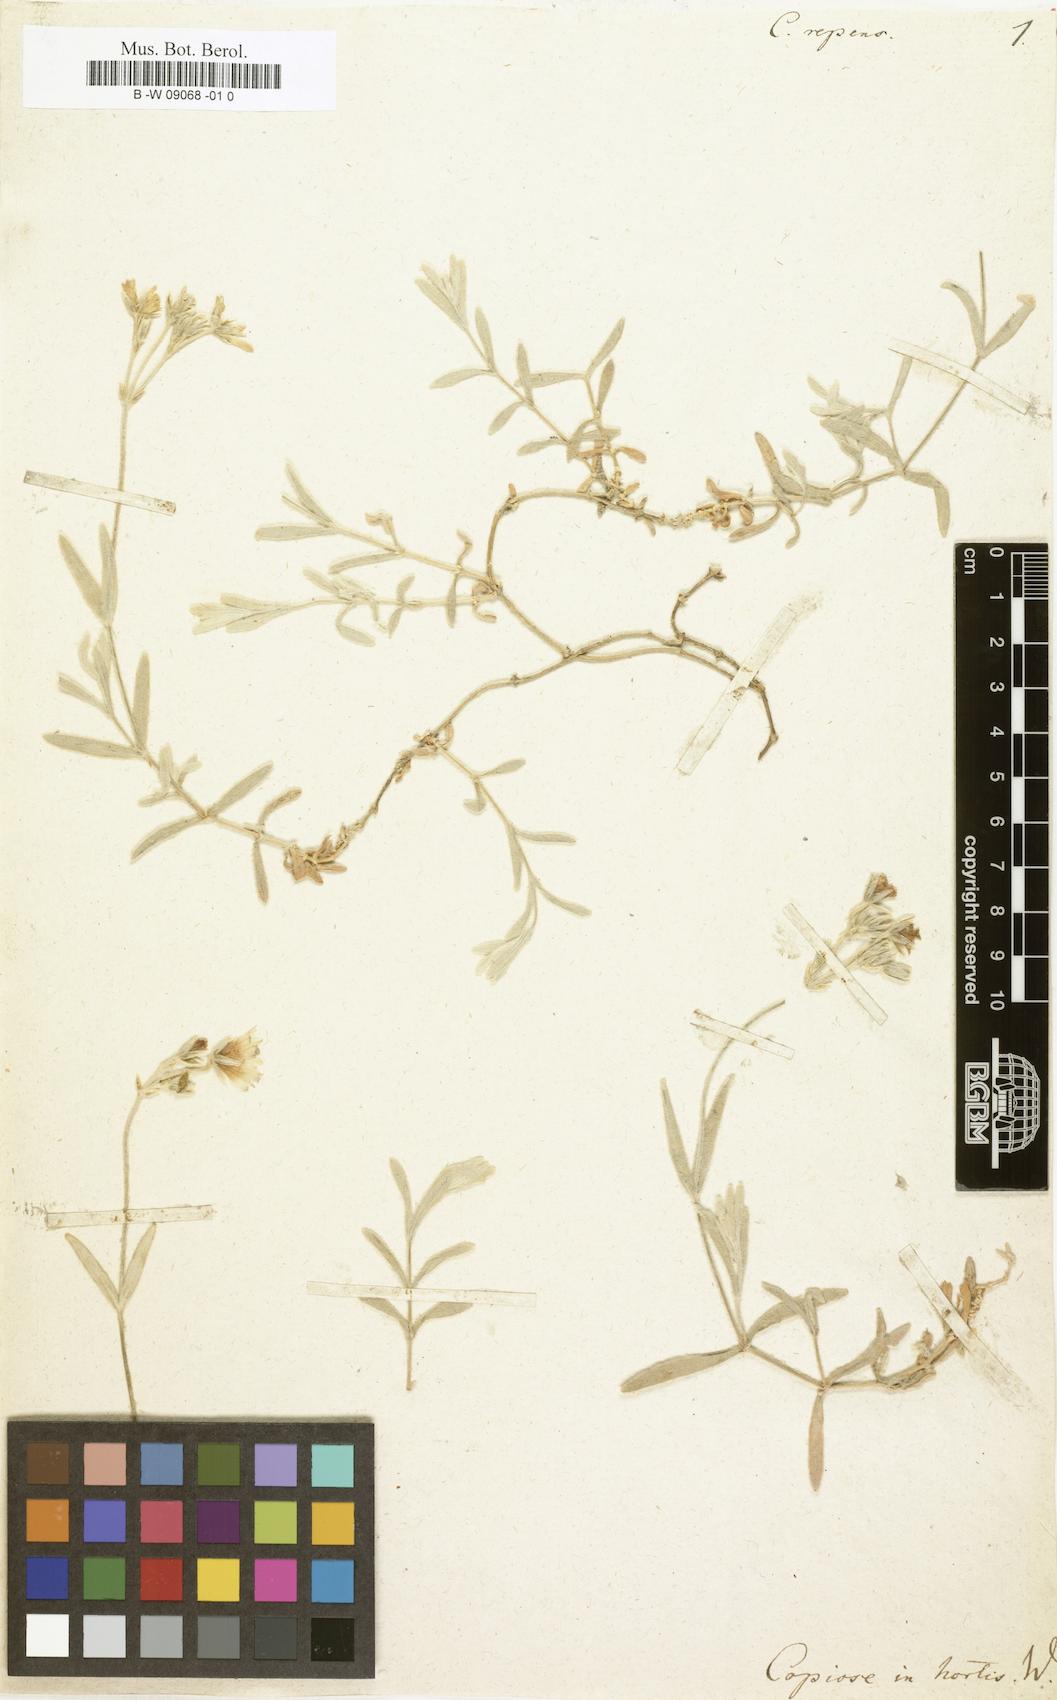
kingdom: Plantae
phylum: Tracheophyta
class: Magnoliopsida
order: Caryophyllales
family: Caryophyllaceae
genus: Cerastium
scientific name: Cerastium
